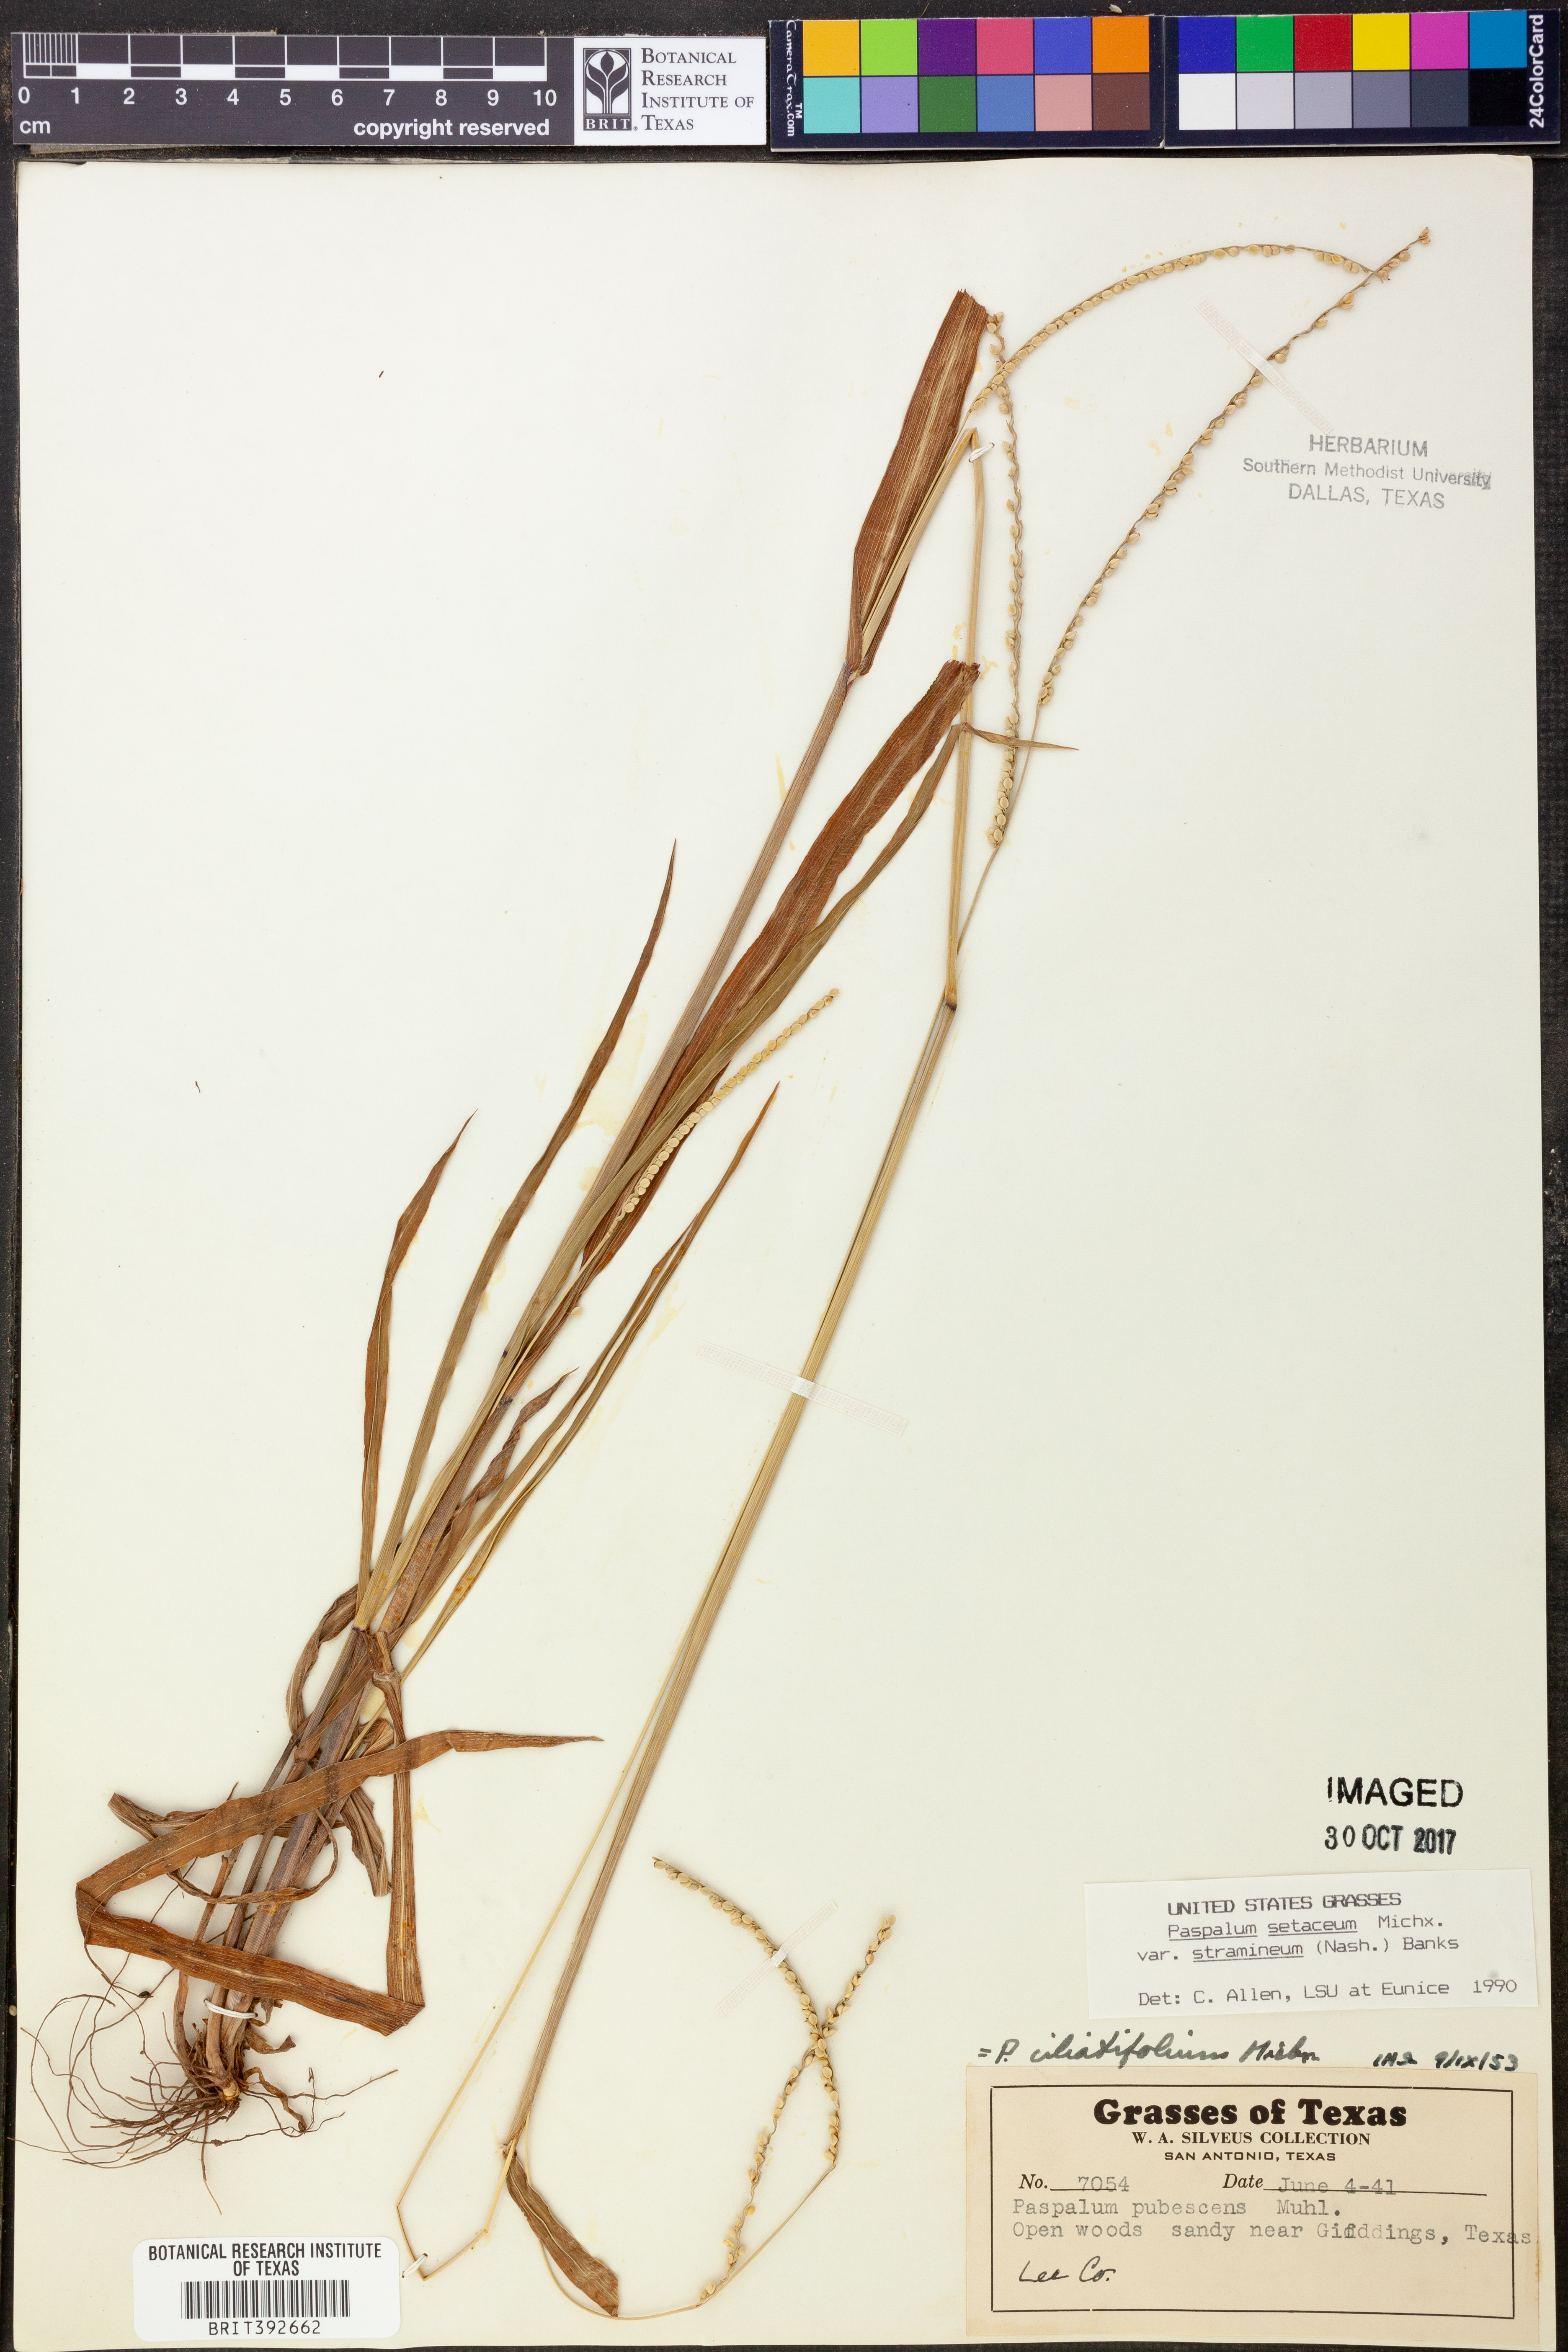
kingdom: Plantae
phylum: Tracheophyta
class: Liliopsida
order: Poales
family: Poaceae
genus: Paspalum
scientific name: Paspalum setaceum
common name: Slender paspalum
